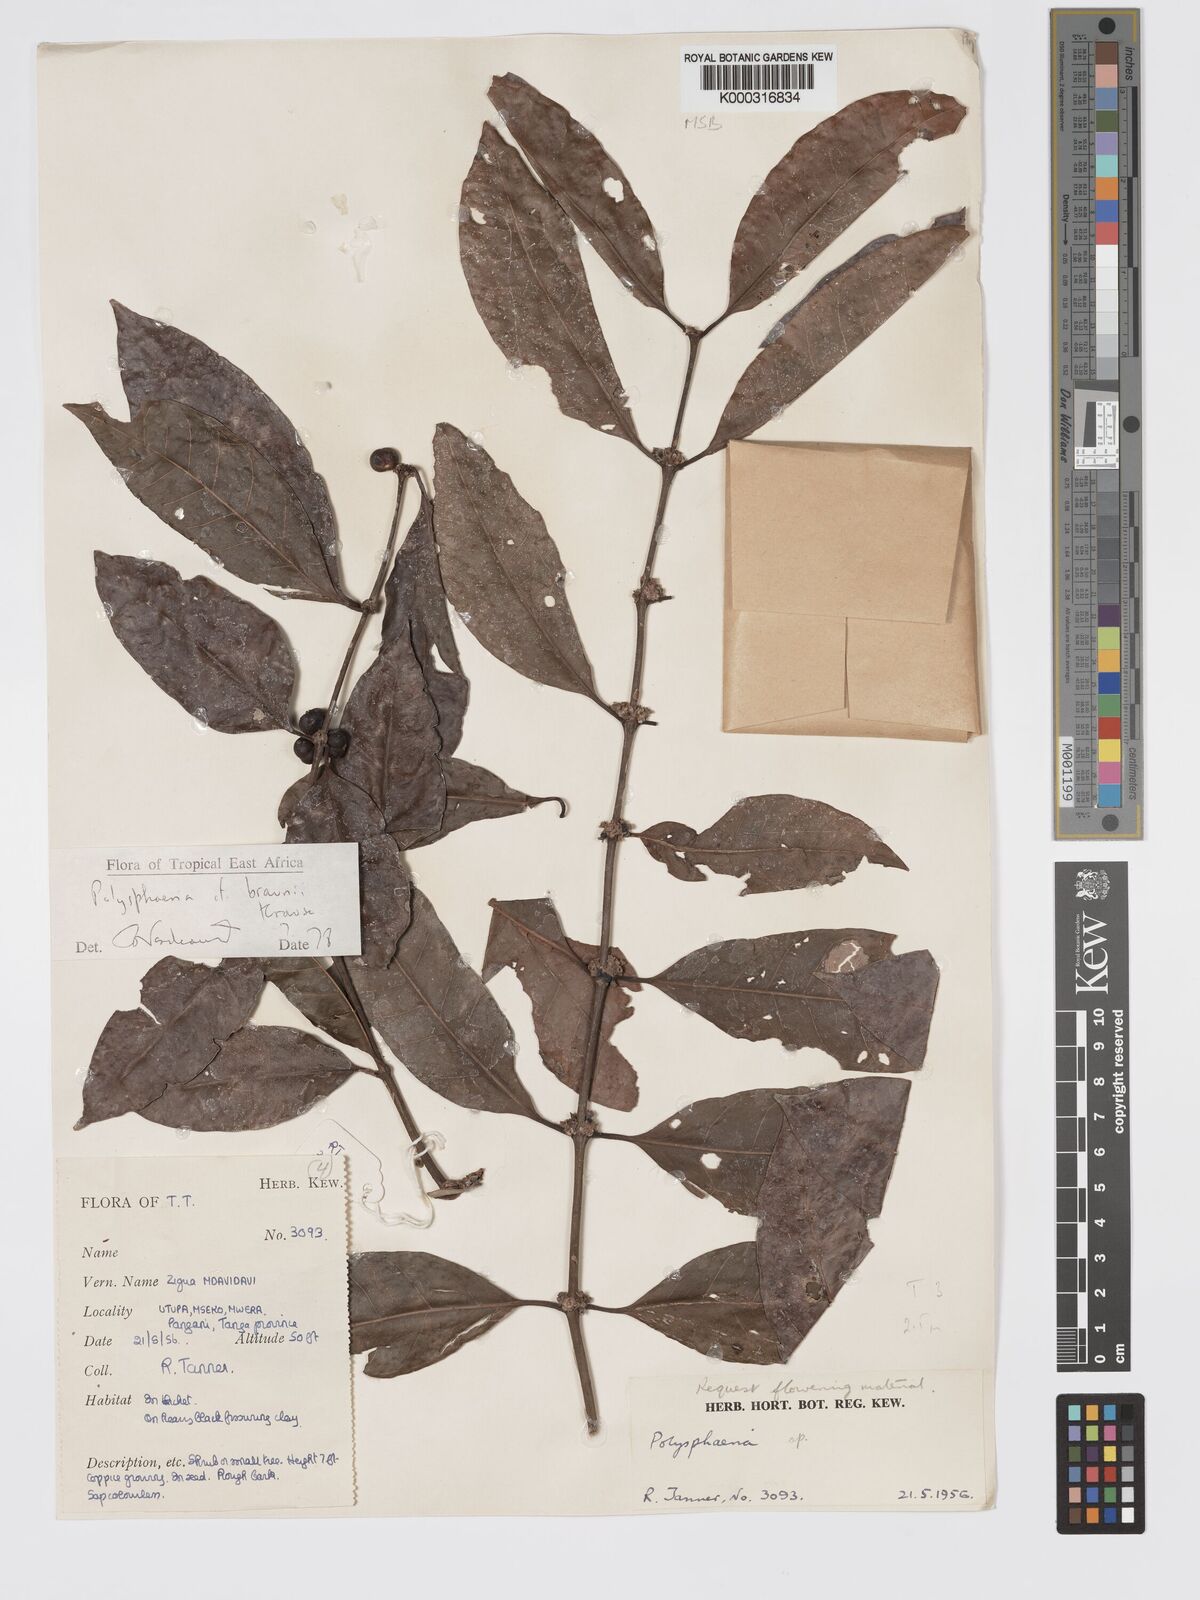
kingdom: Plantae
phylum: Tracheophyta
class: Magnoliopsida
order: Gentianales
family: Rubiaceae
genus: Polysphaeria
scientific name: Polysphaeria braunii
